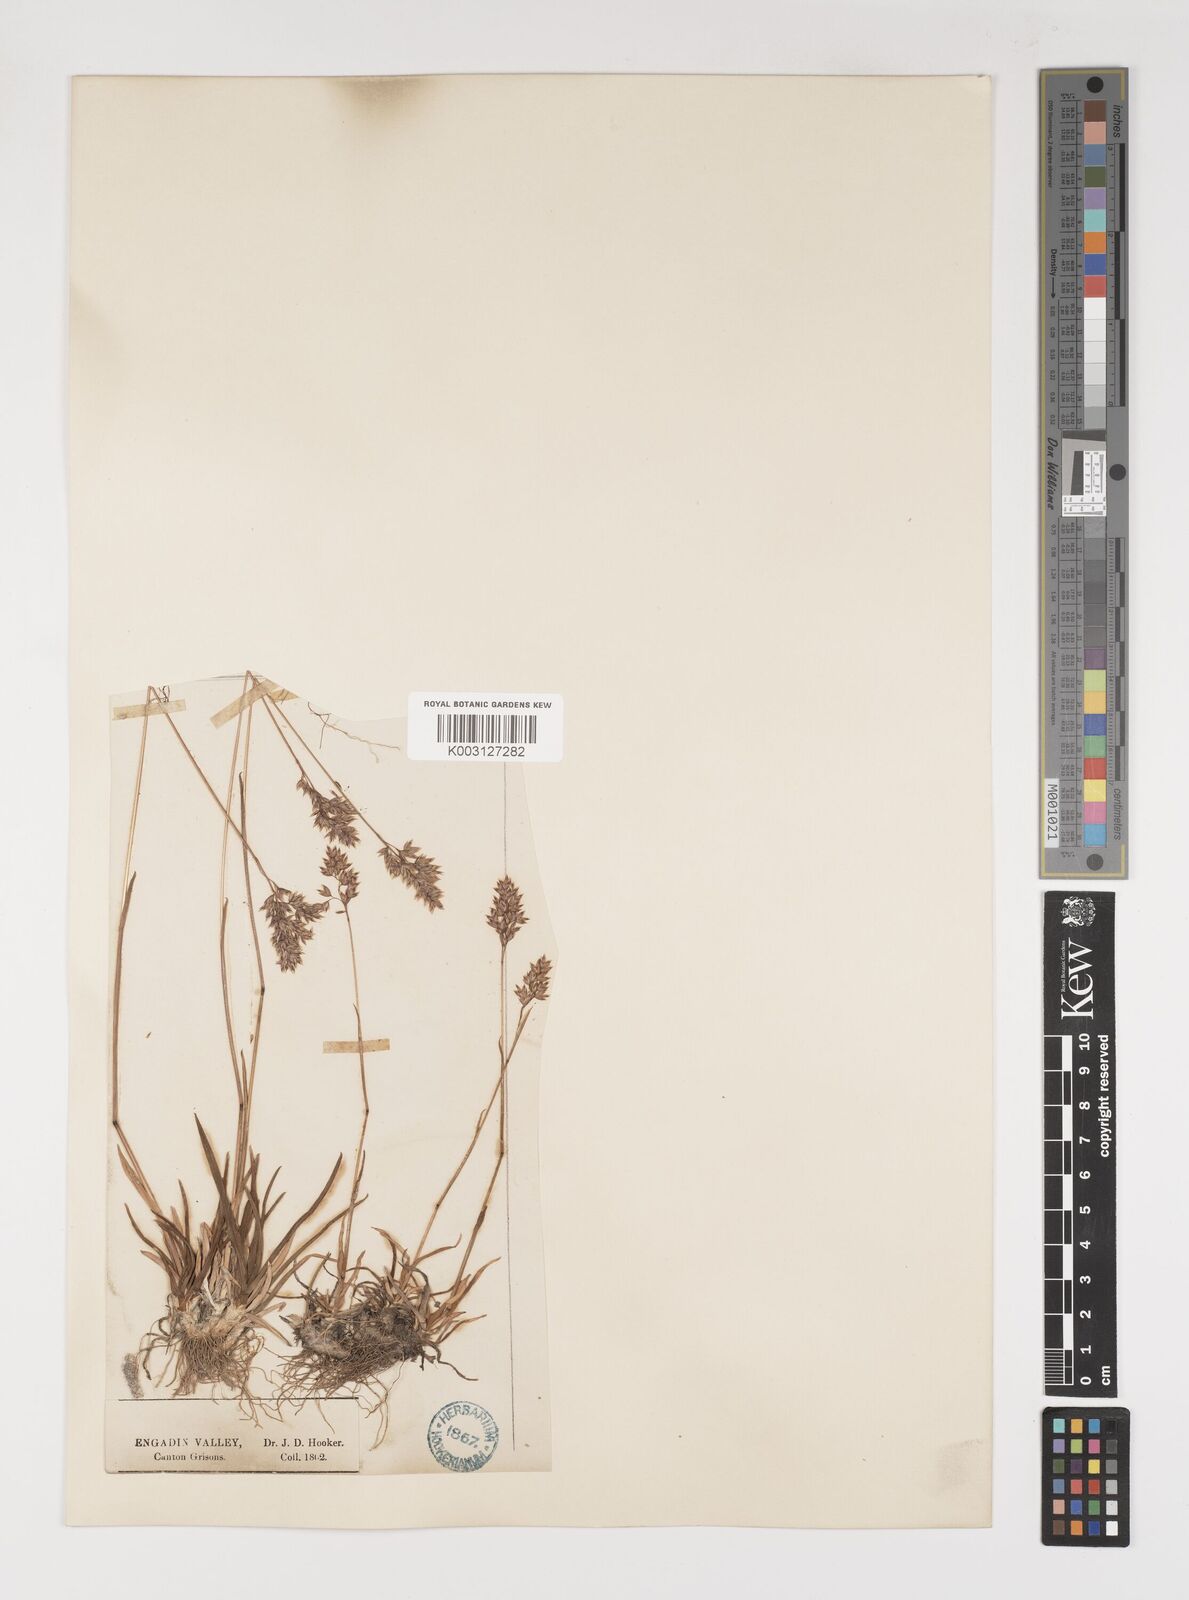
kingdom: Plantae
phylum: Tracheophyta
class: Liliopsida
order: Poales
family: Poaceae
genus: Poa
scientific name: Poa alpina
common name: Alpine bluegrass
